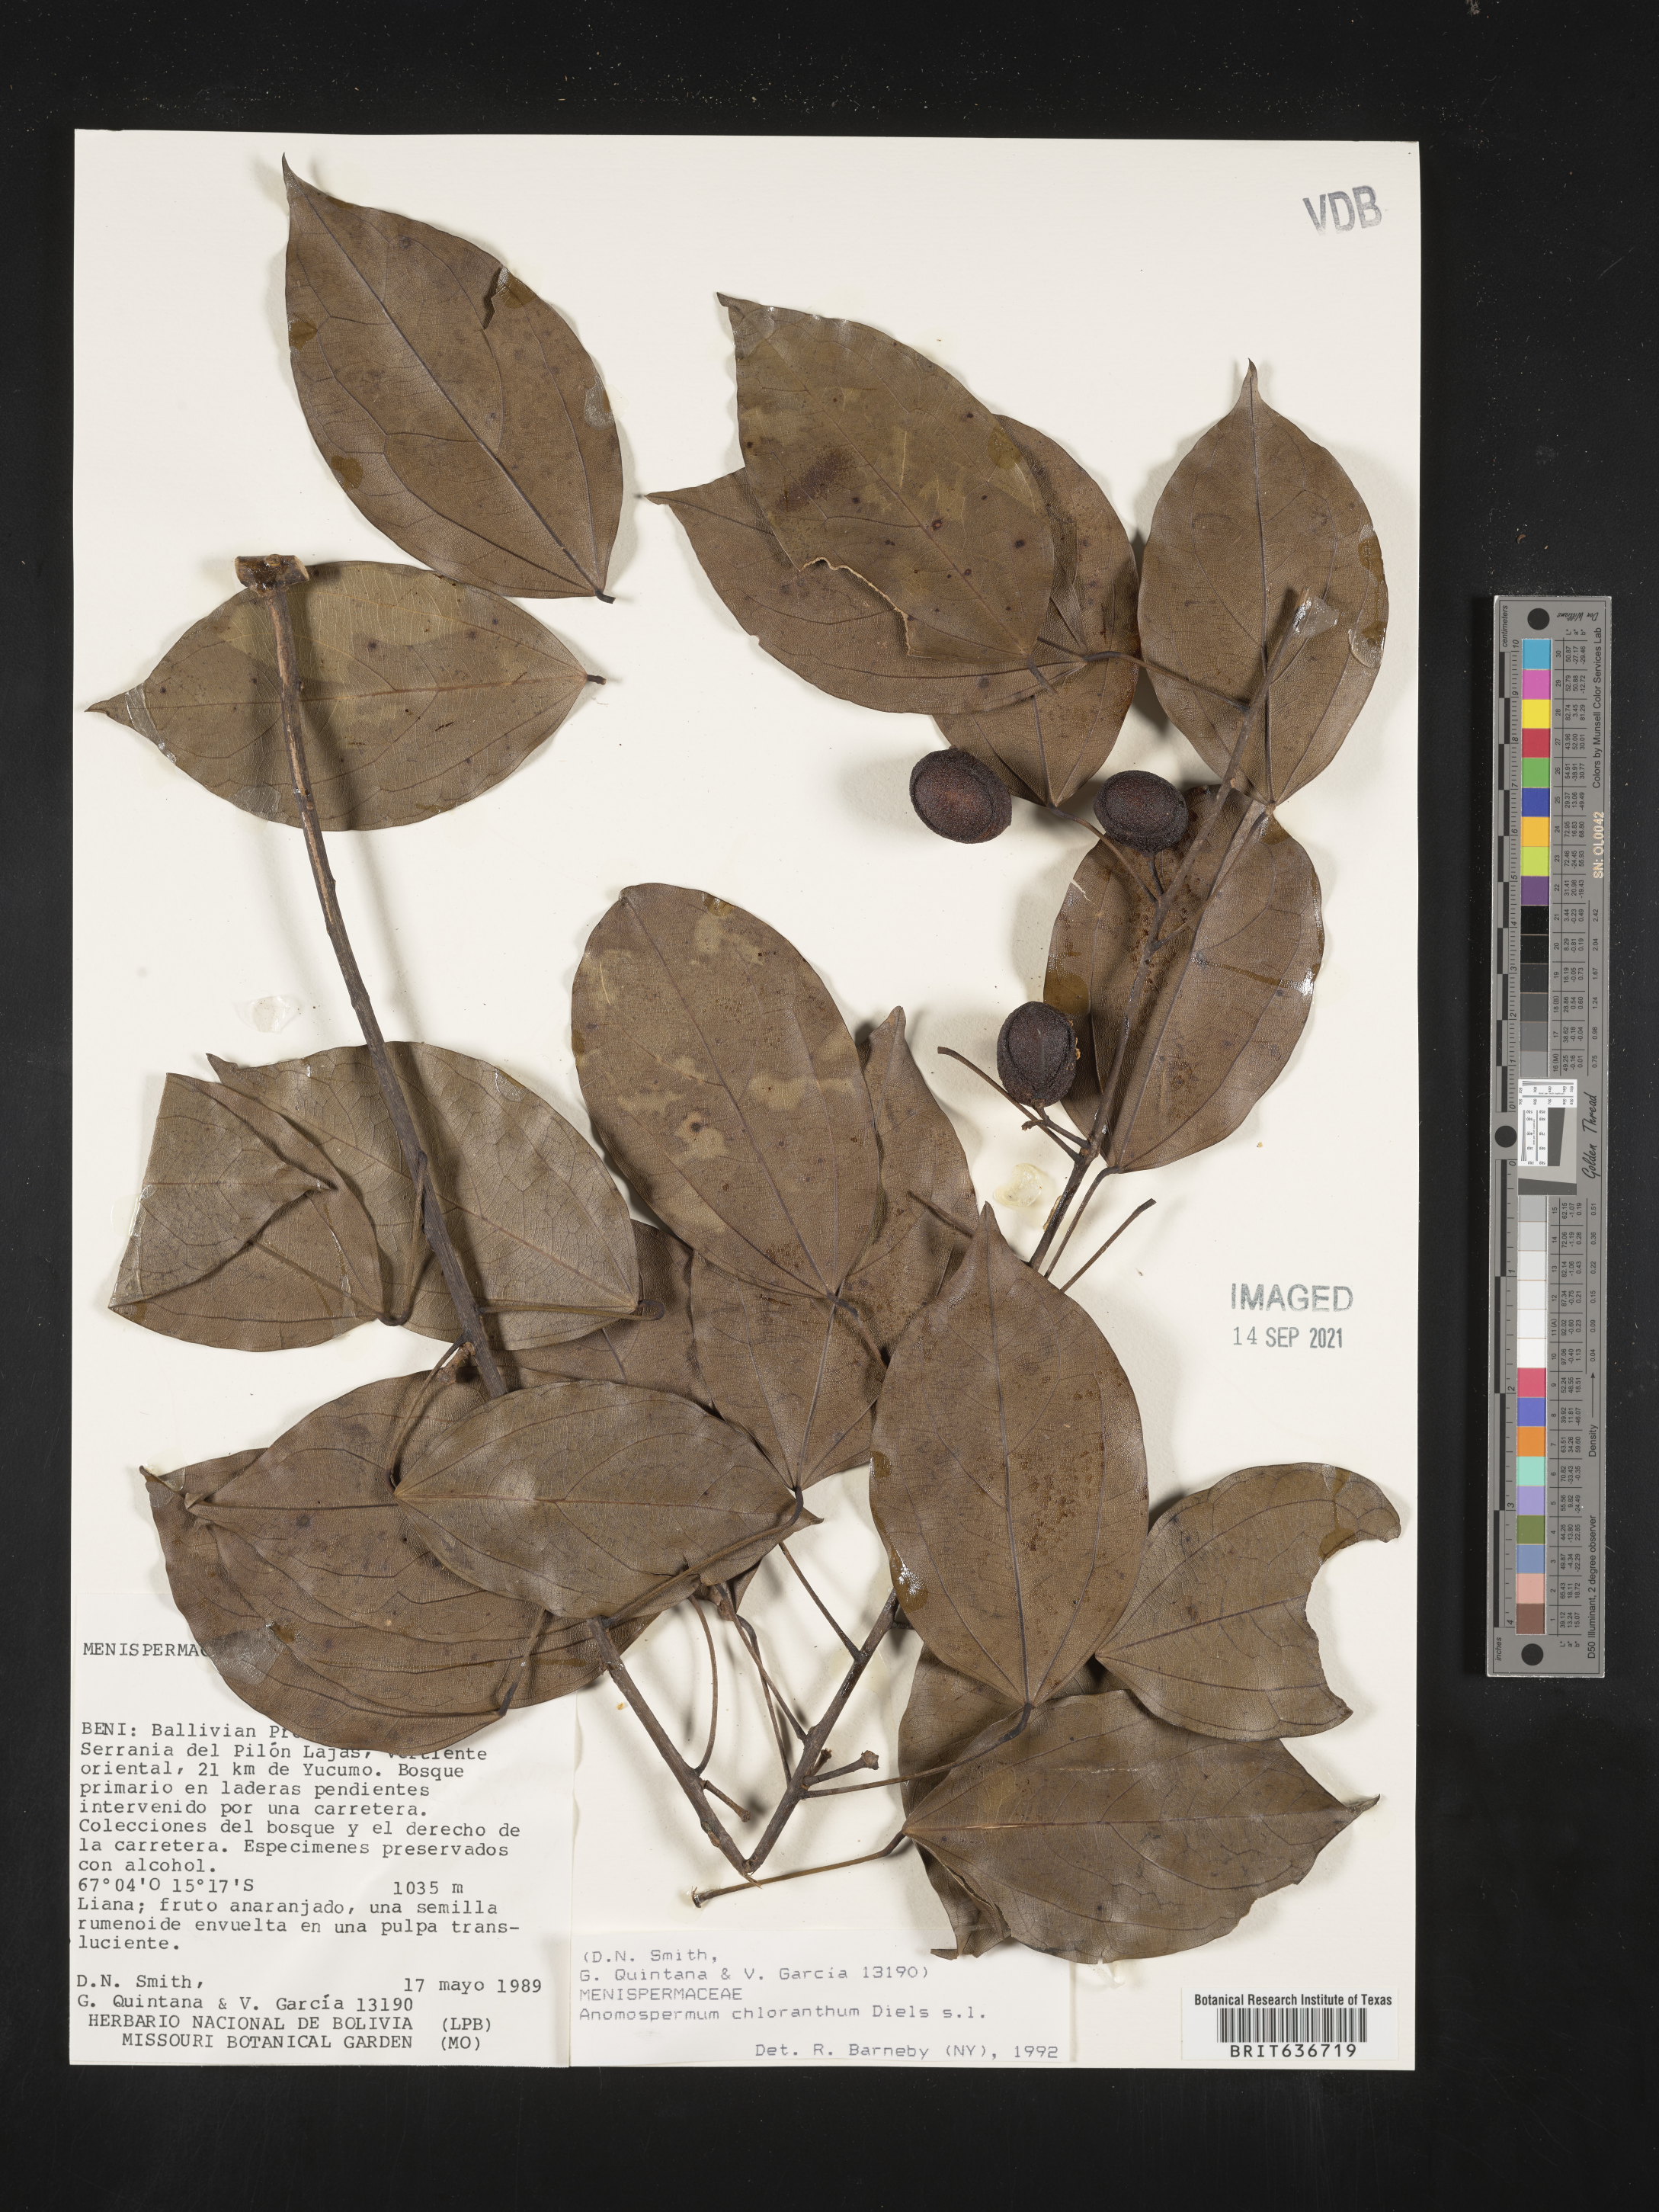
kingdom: Plantae
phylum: Tracheophyta
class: Magnoliopsida
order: Ranunculales
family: Menispermaceae
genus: Anomospermum
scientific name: Anomospermum chloranthum
